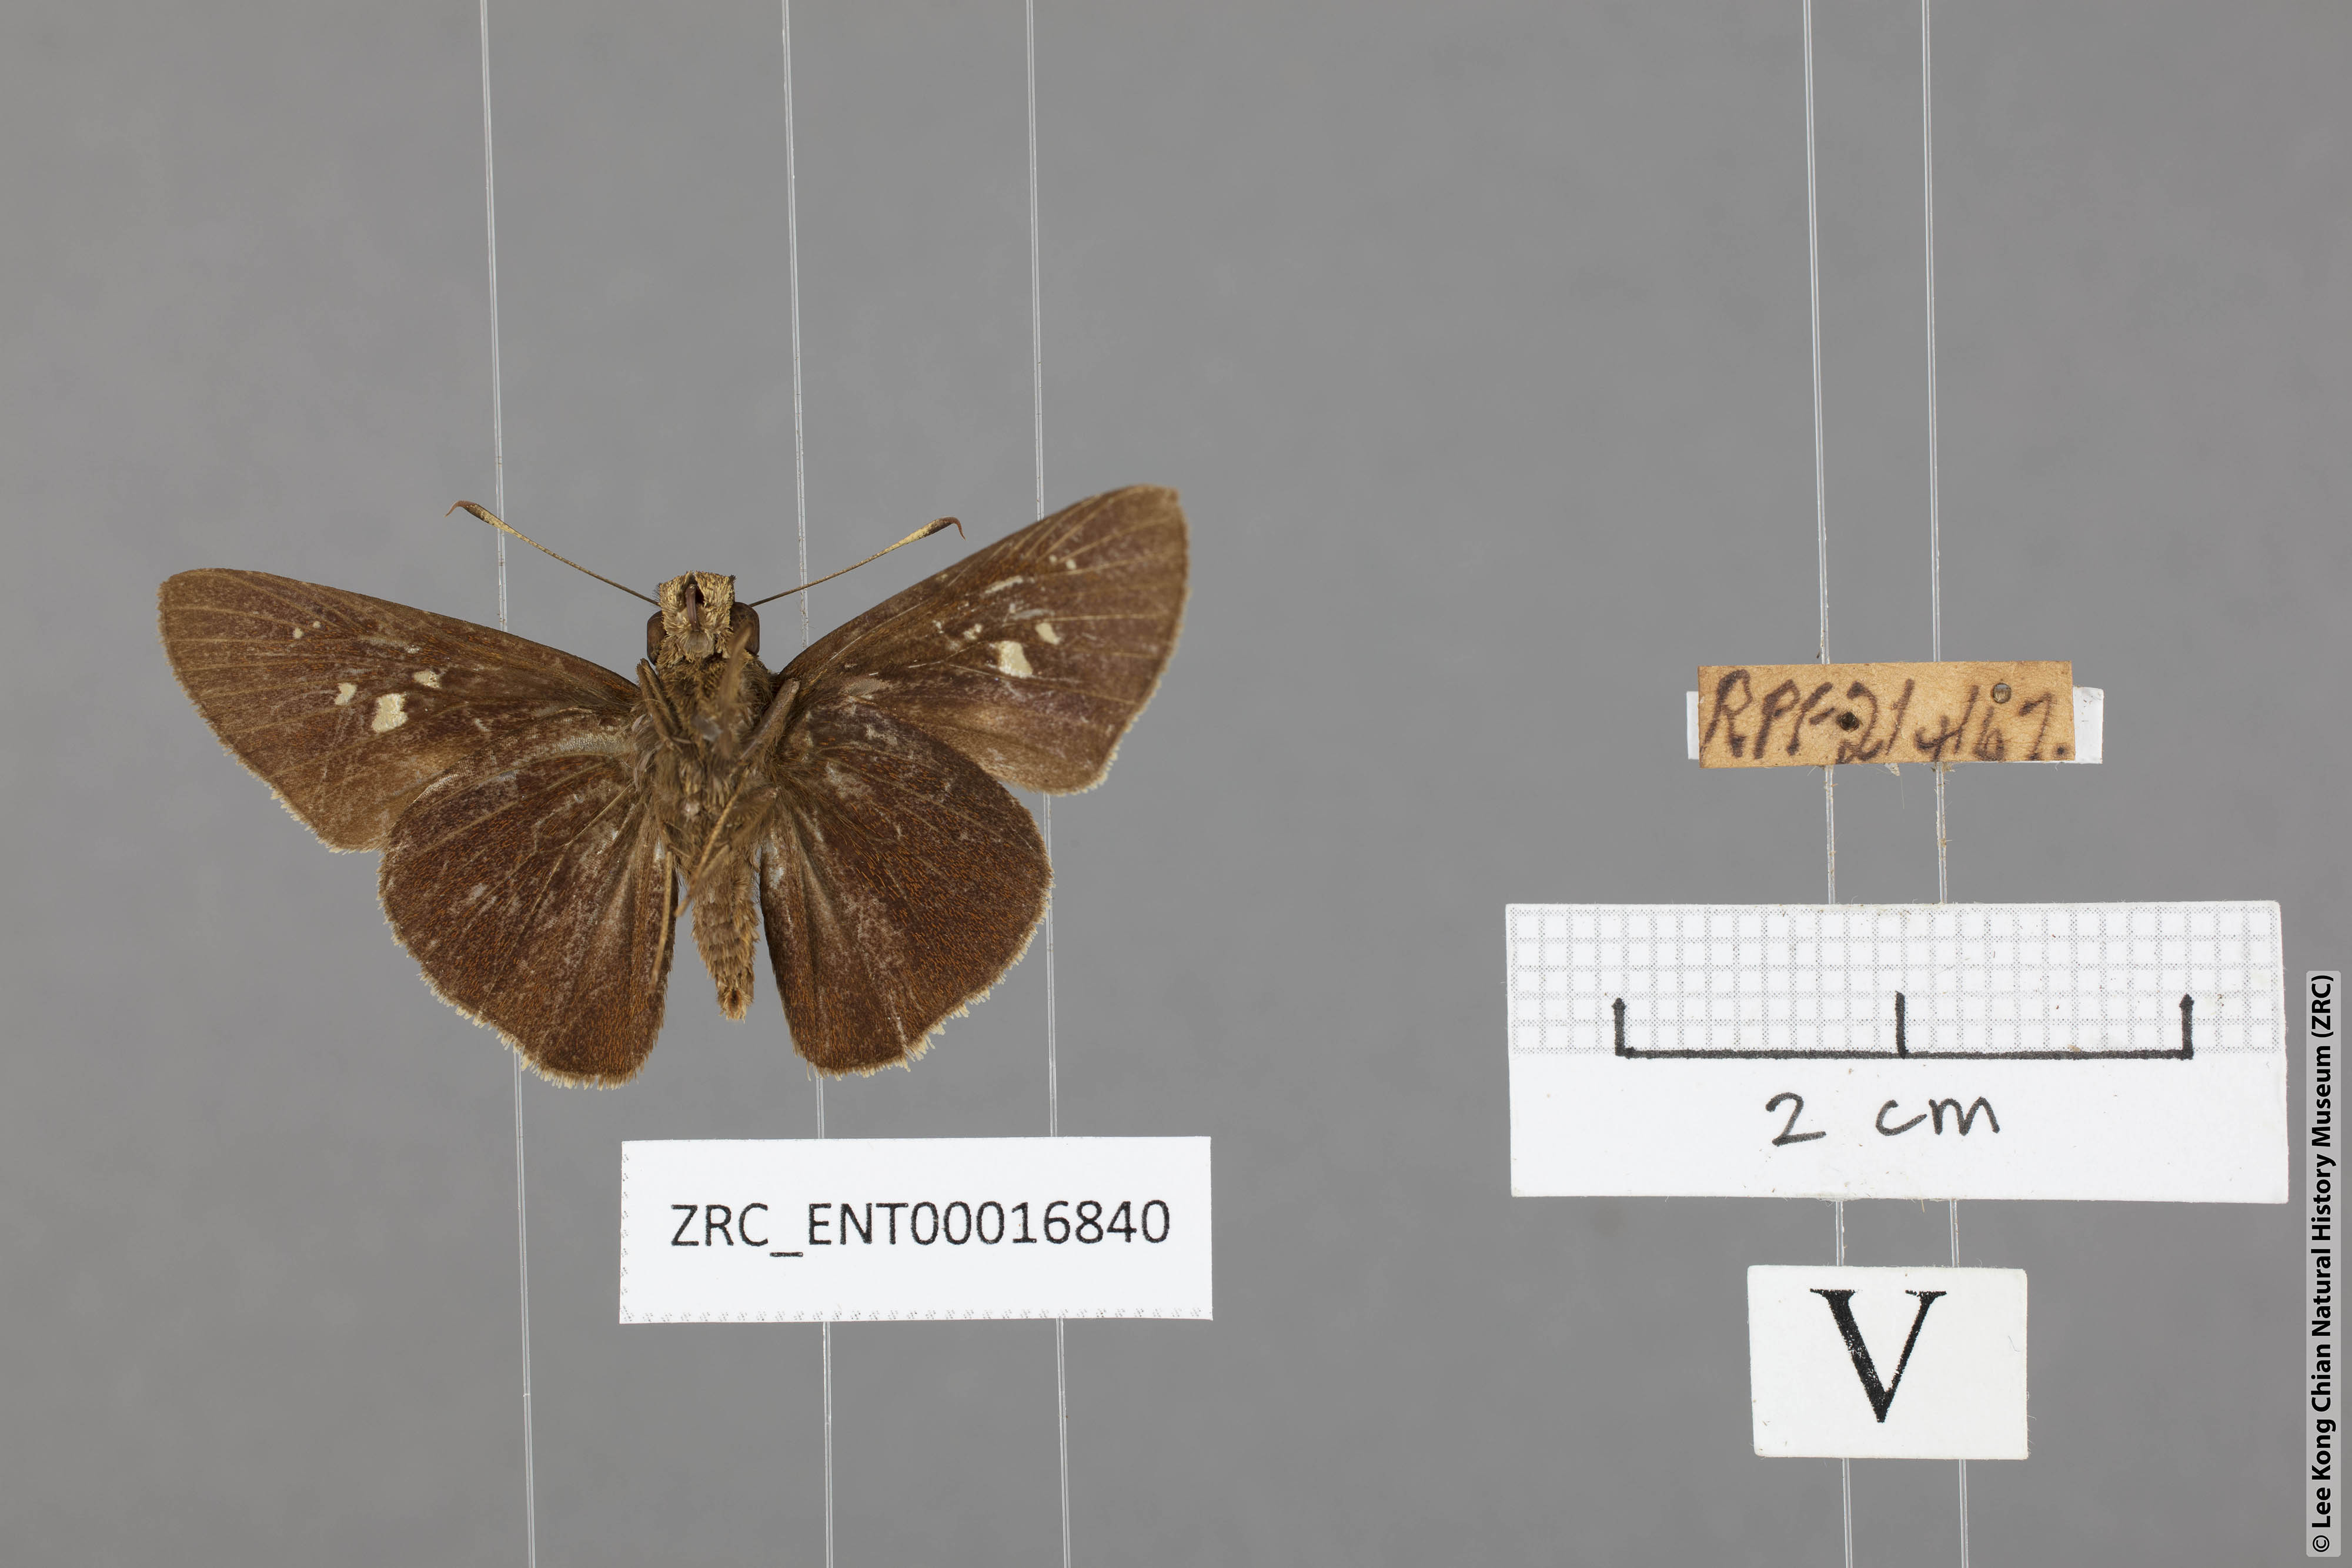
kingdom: Animalia
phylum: Arthropoda
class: Insecta
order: Lepidoptera
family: Hesperiidae
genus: Caltoris
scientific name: Caltoris cormasa
